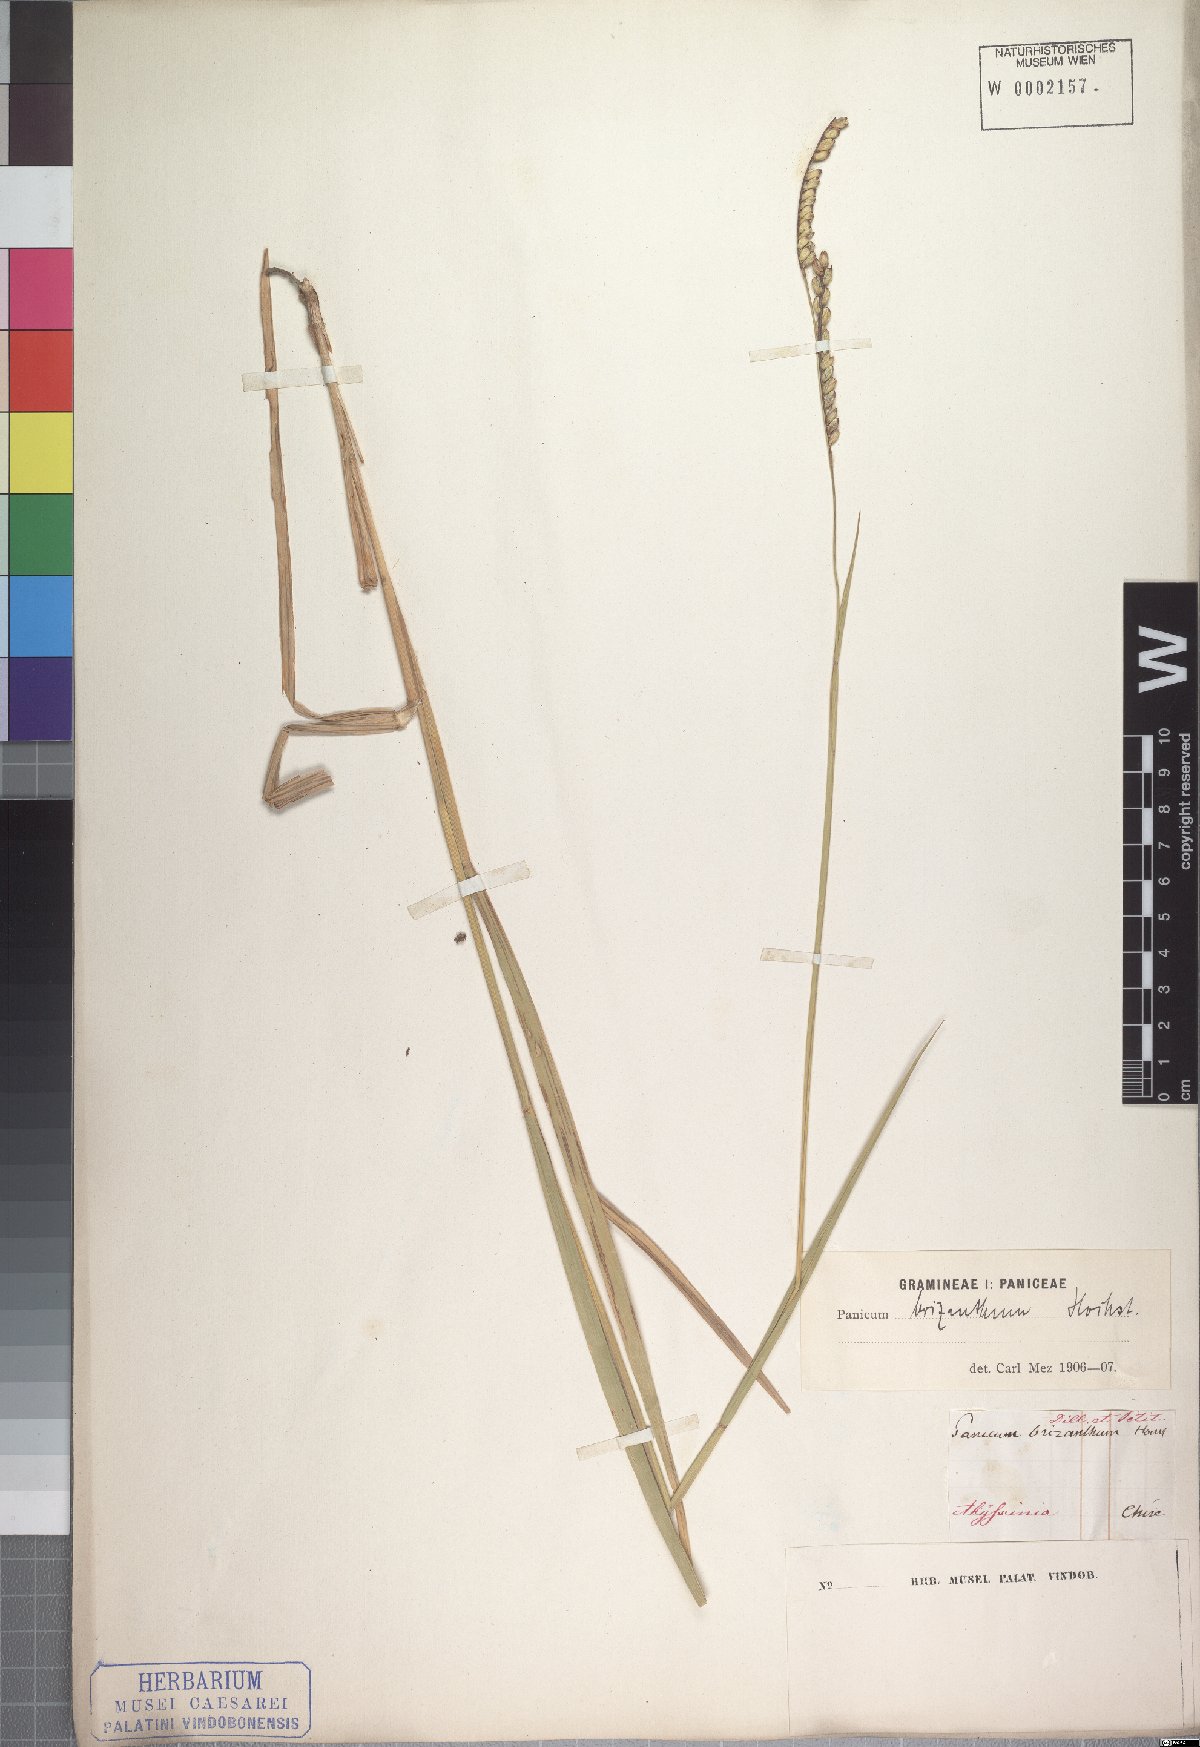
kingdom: Plantae
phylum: Tracheophyta
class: Liliopsida
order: Poales
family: Poaceae
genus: Urochloa
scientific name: Urochloa brizantha
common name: Palisade signalgrass
